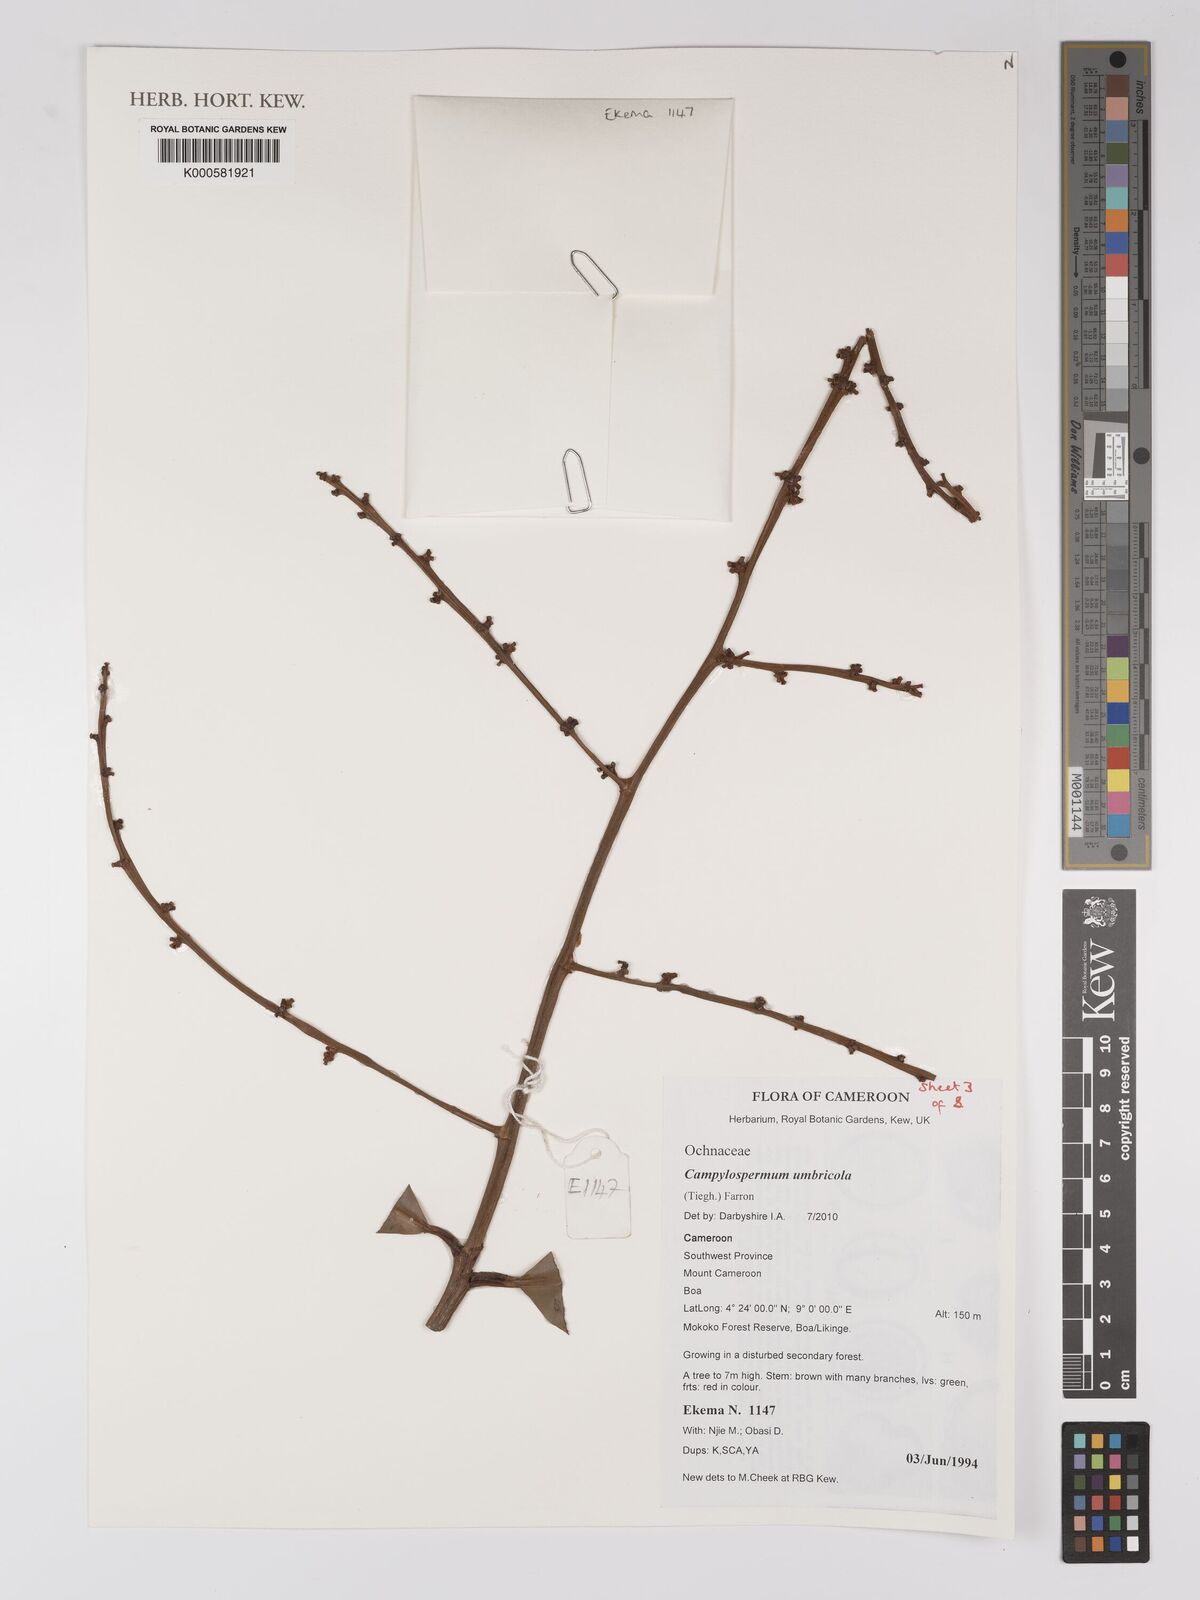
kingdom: Plantae
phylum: Tracheophyta
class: Magnoliopsida
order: Malpighiales
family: Ochnaceae
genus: Campylospermum
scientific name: Campylospermum umbricola
